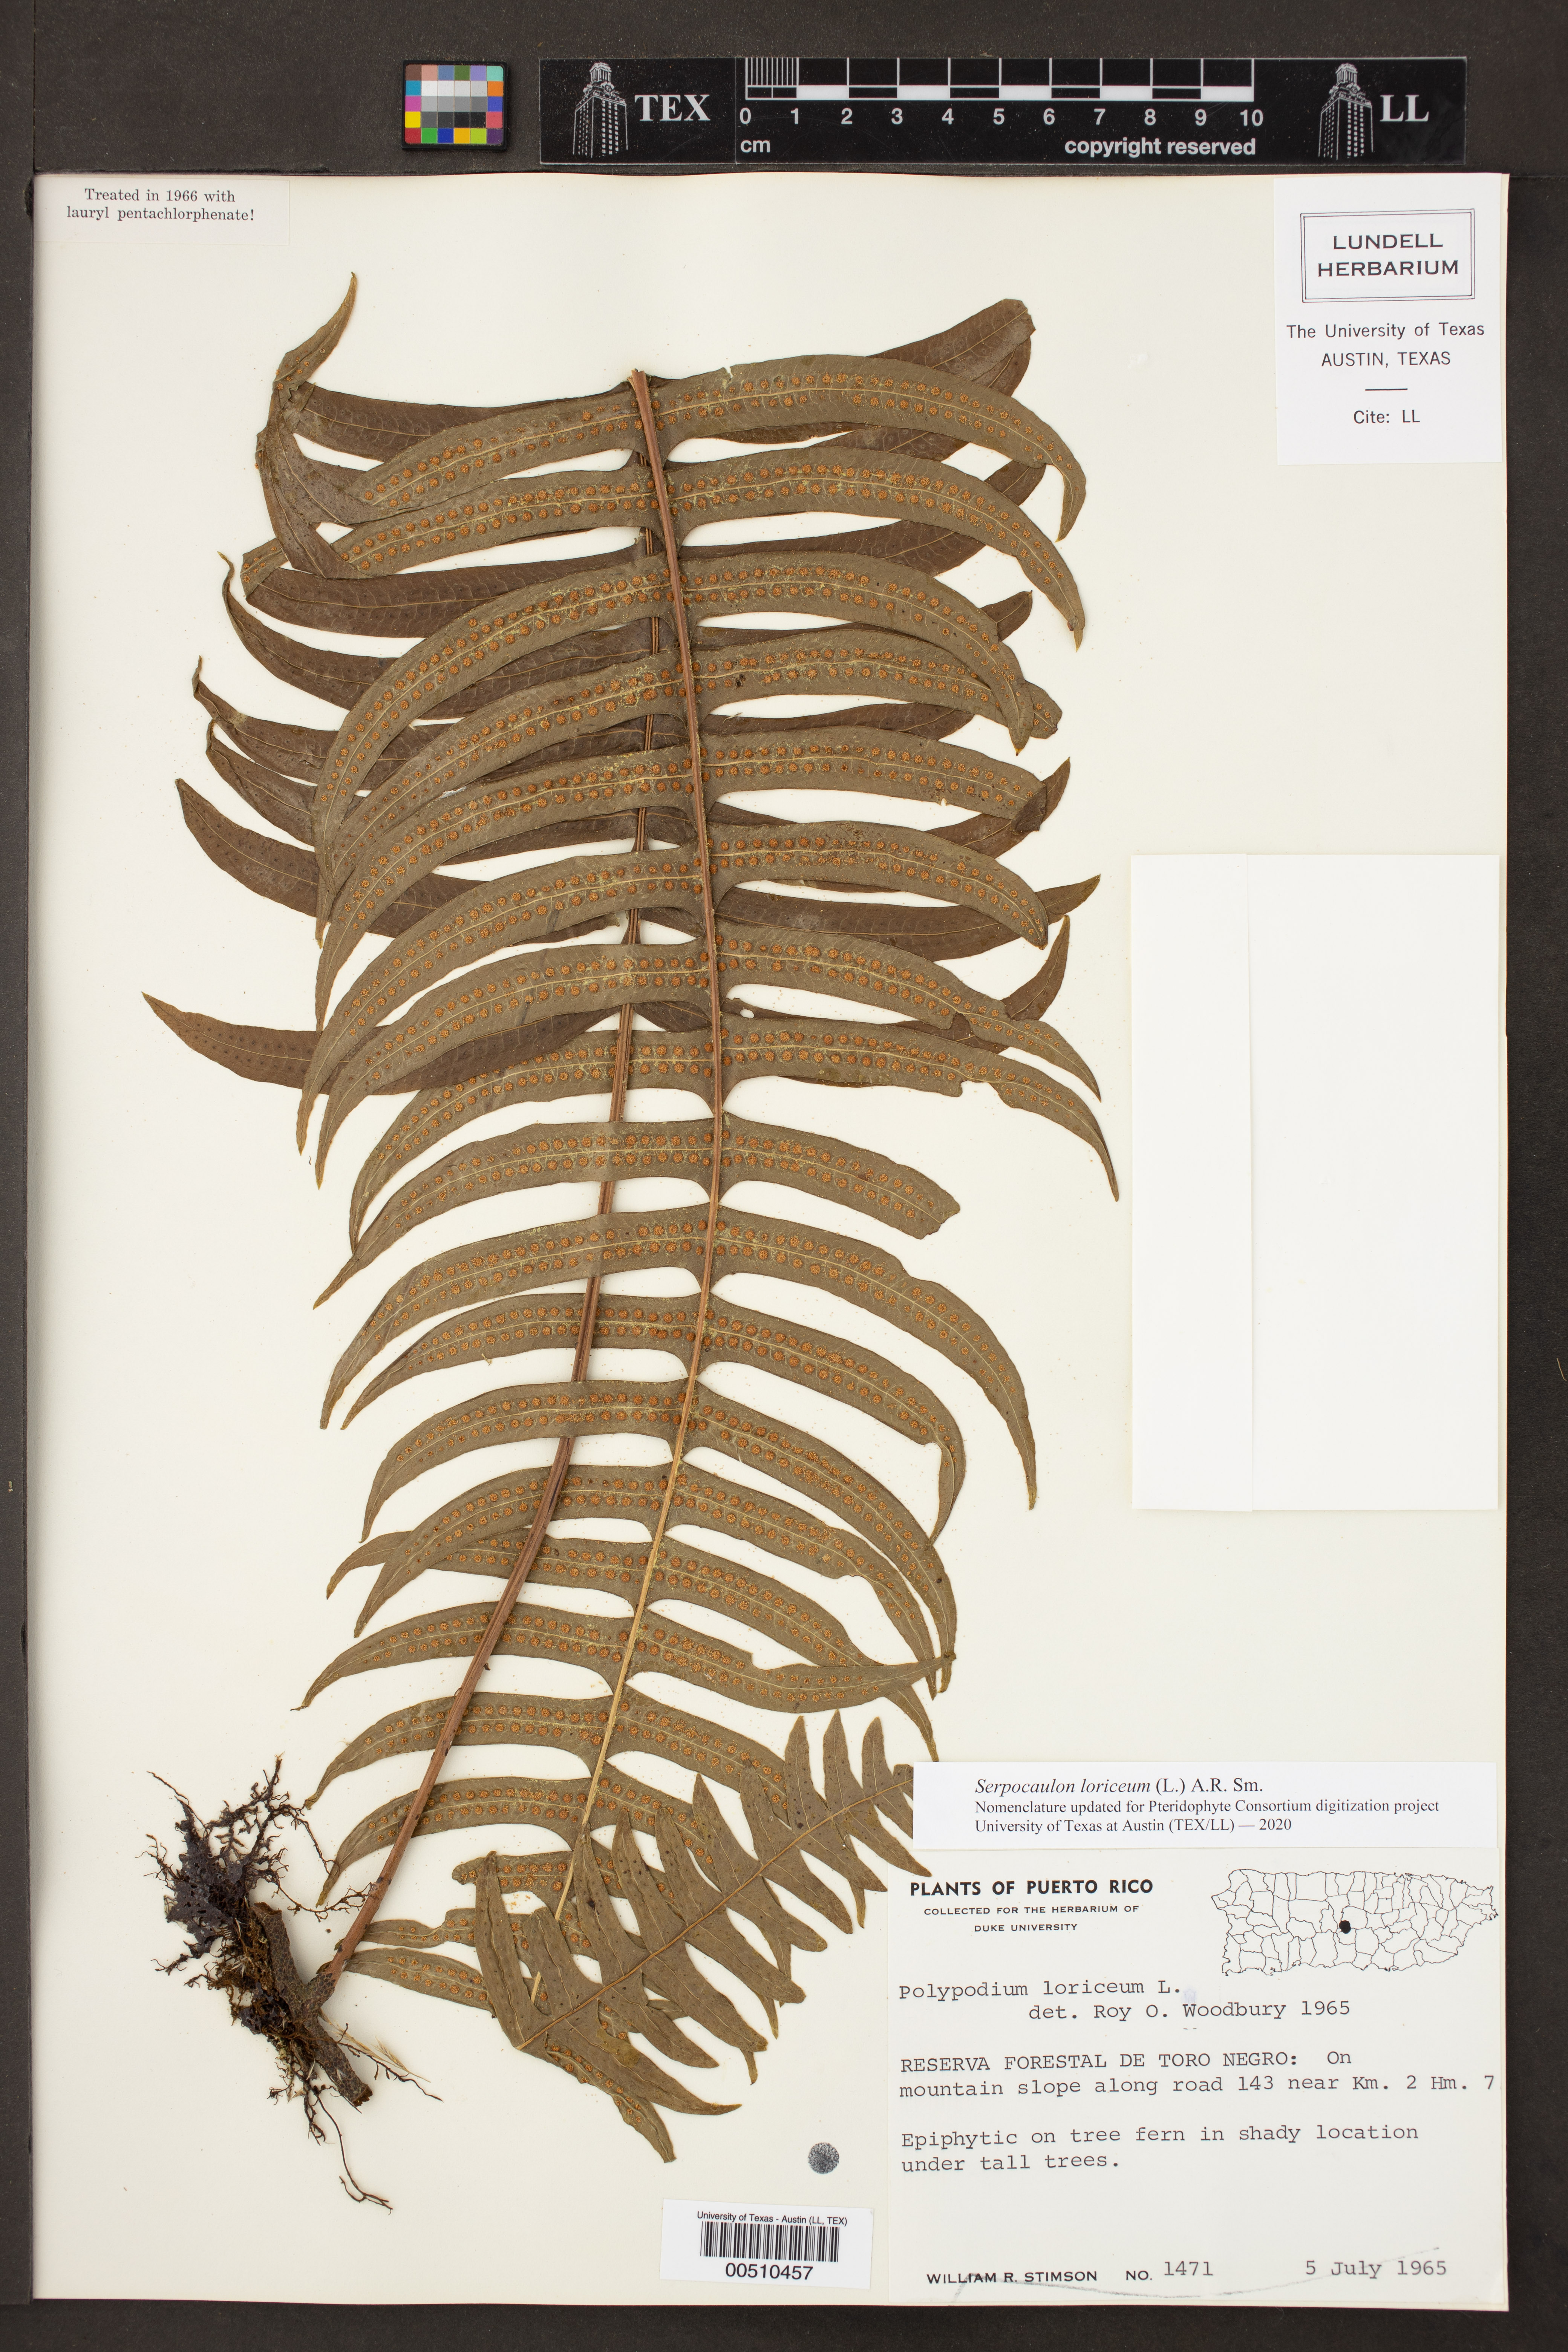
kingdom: Plantae
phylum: Tracheophyta
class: Polypodiopsida
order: Polypodiales
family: Polypodiaceae
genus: Serpocaulon
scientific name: Serpocaulon loriceum
